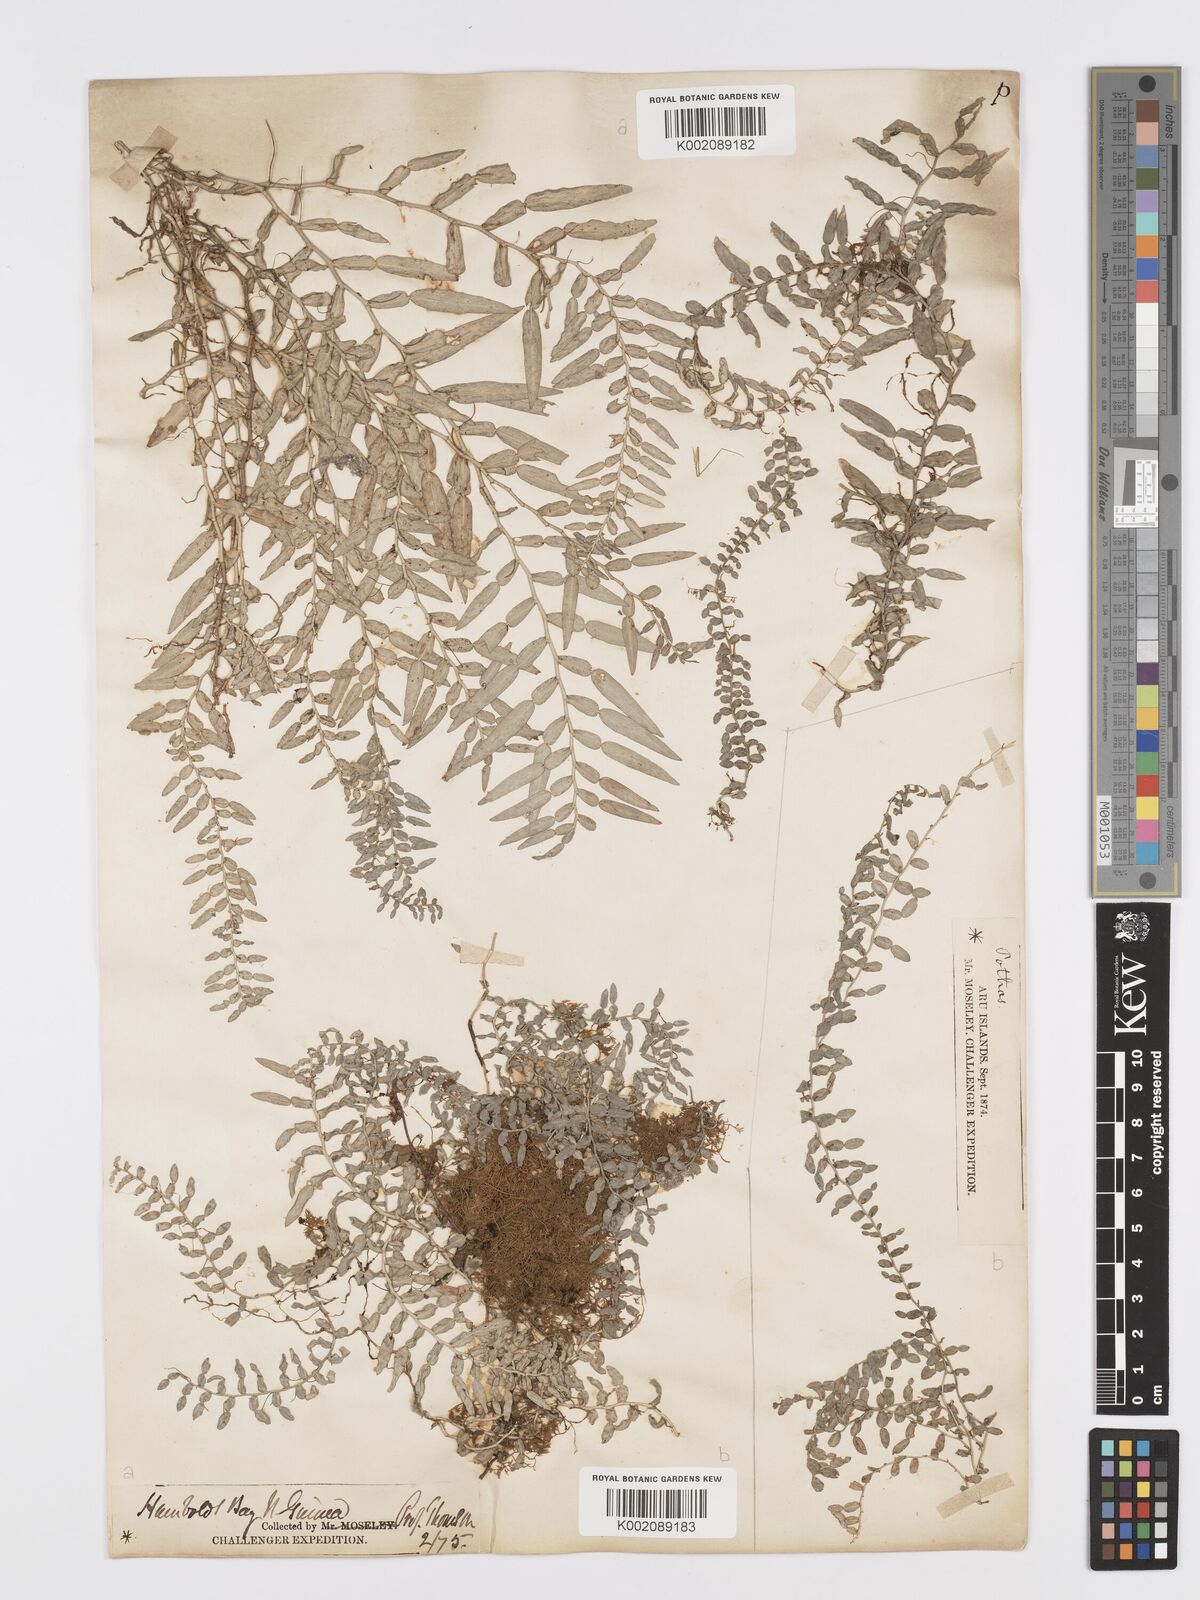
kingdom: Plantae
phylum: Tracheophyta
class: Liliopsida
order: Alismatales
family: Araceae
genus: Pothos
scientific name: Pothos
